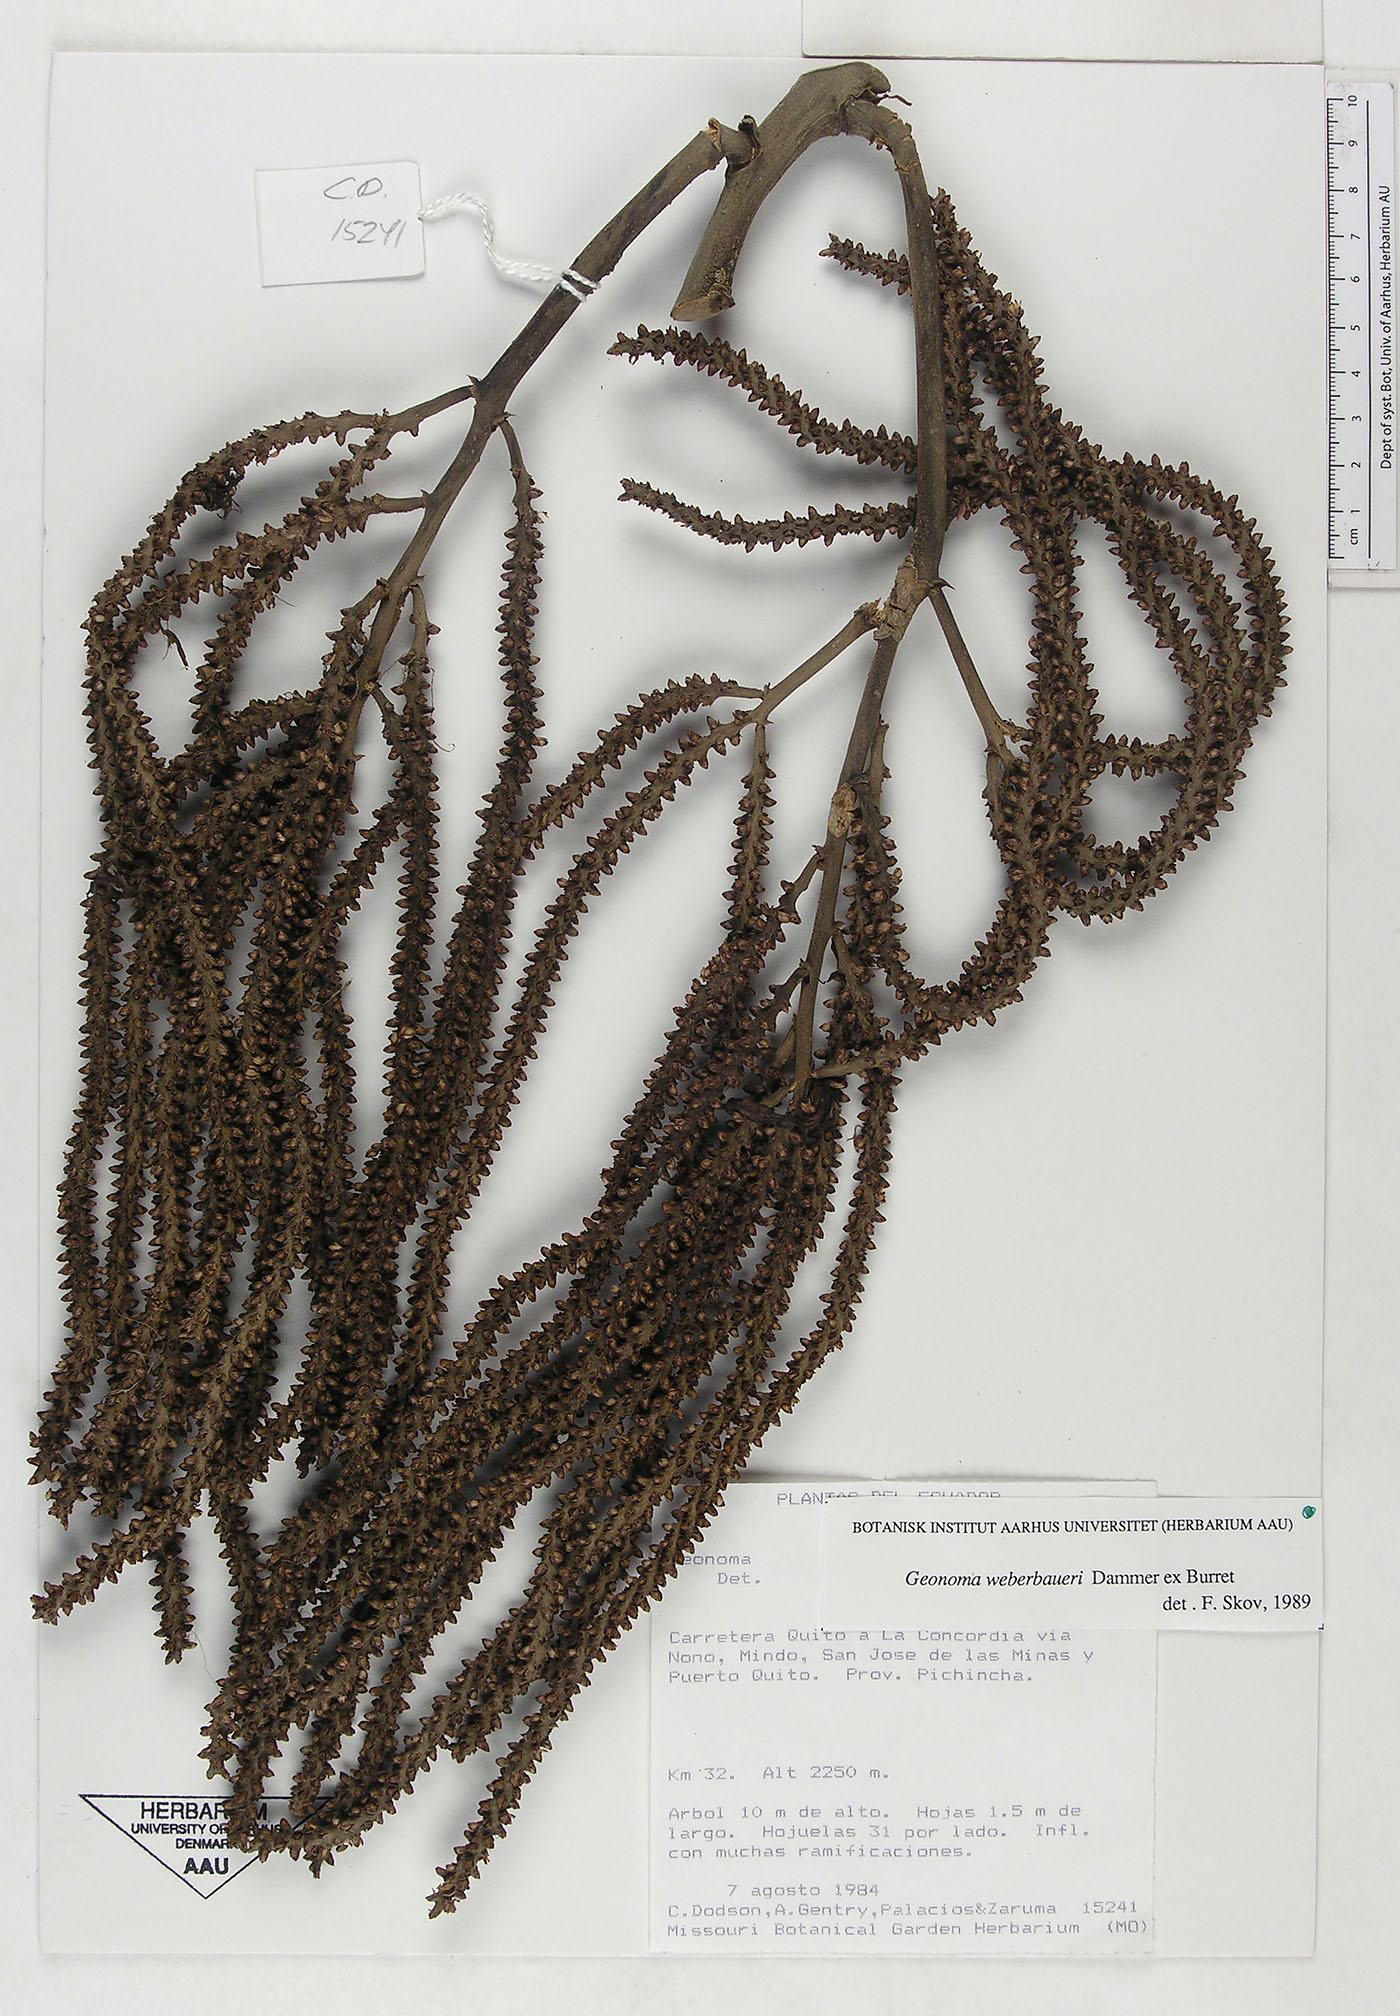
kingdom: Plantae
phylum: Tracheophyta
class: Liliopsida
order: Arecales
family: Arecaceae
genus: Geonoma
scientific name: Geonoma undata
